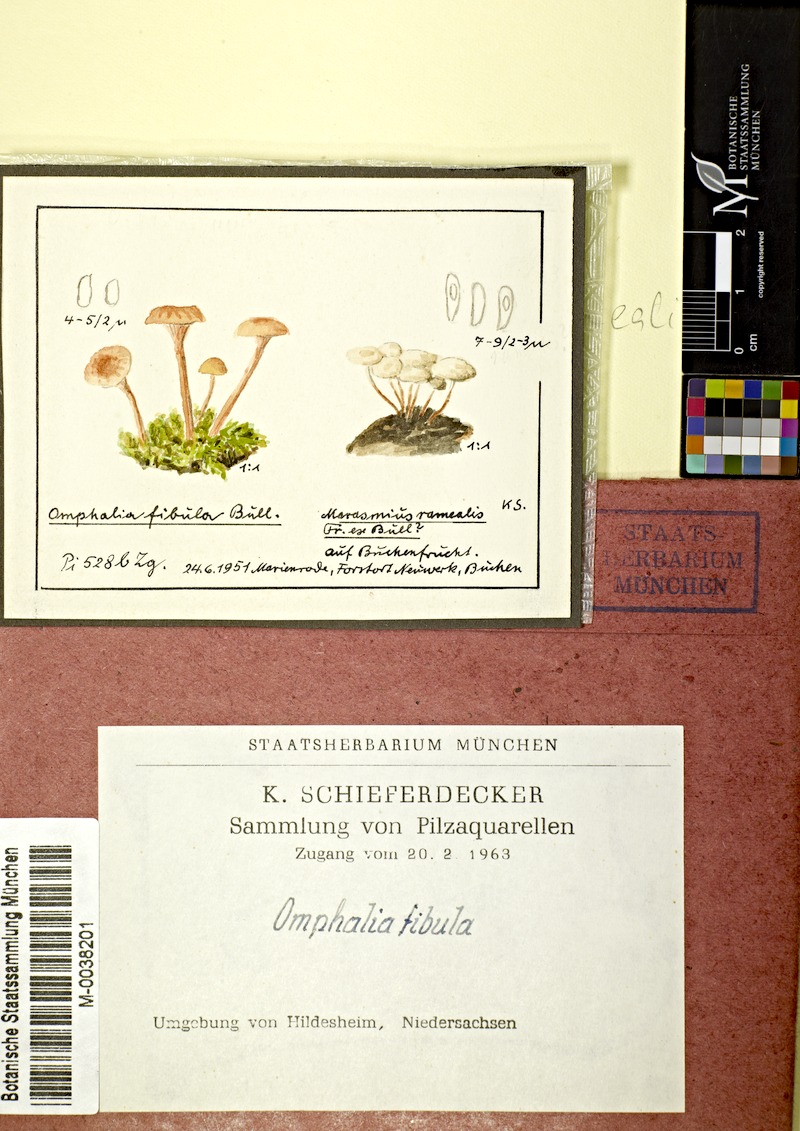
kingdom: Fungi
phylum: Basidiomycota
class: Agaricomycetes
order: Hymenochaetales
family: Rickenellaceae
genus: Rickenella
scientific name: Rickenella fibula
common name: Orange mosscap
